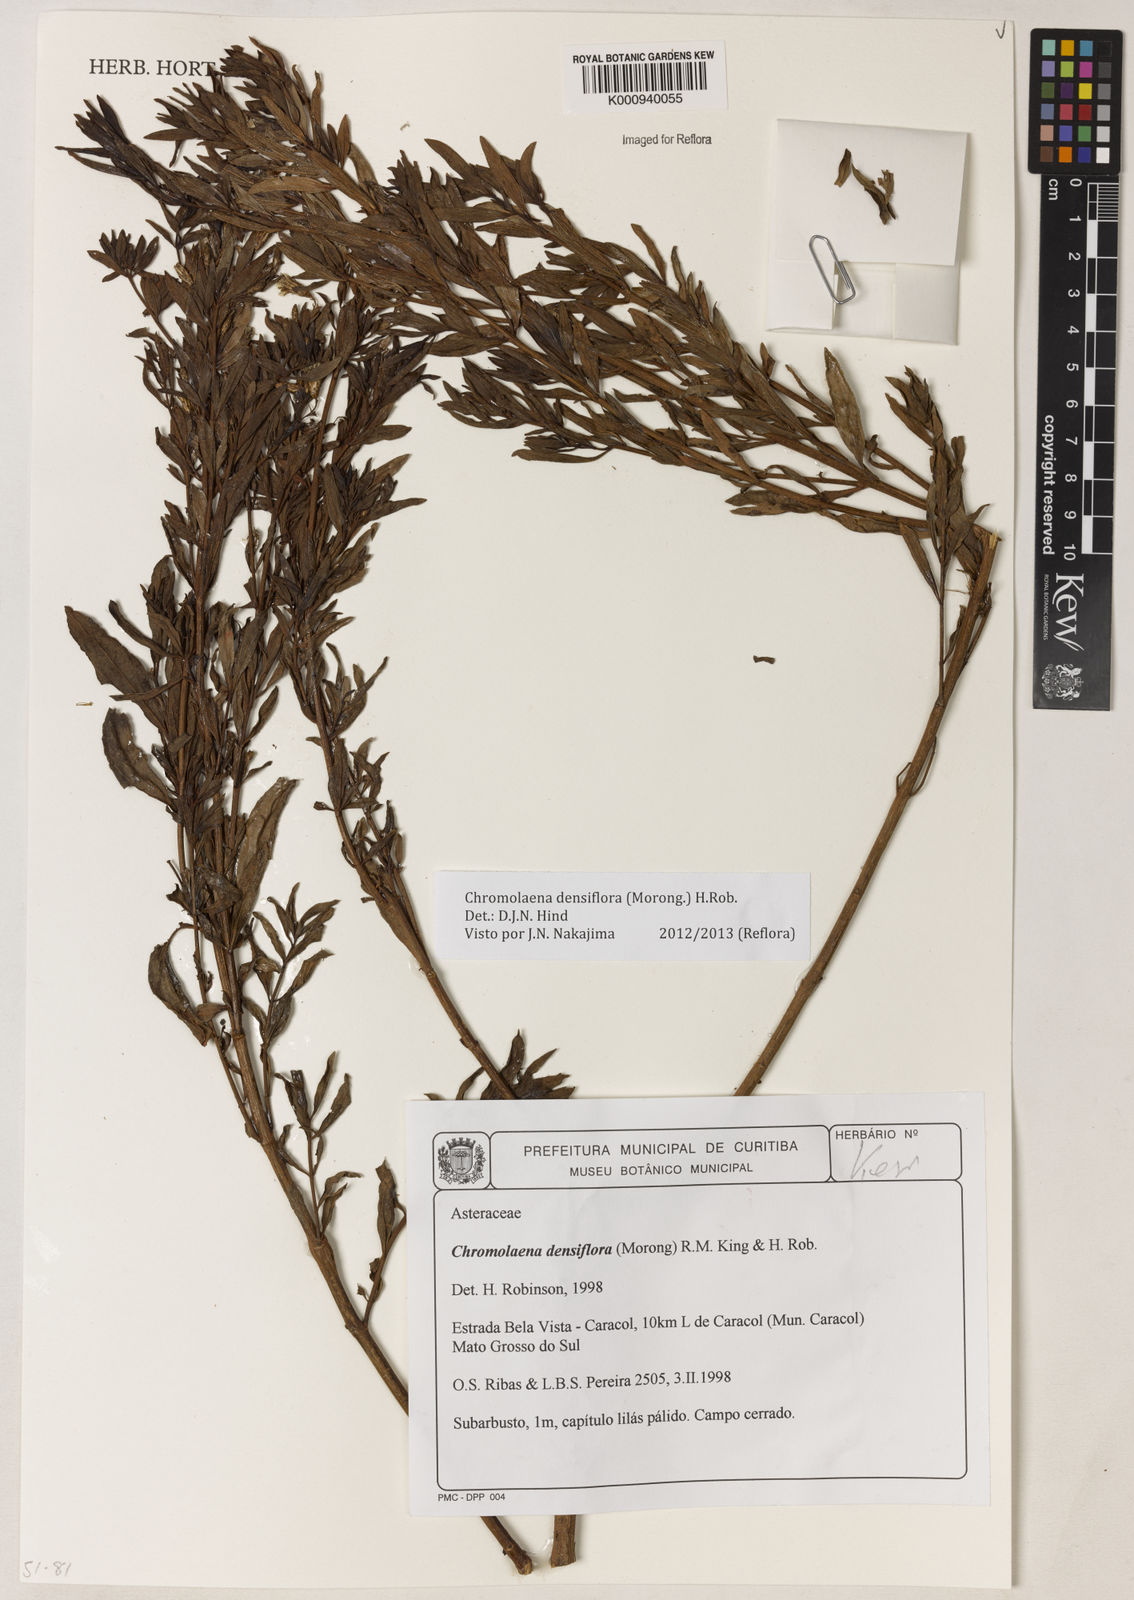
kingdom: Plantae
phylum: Tracheophyta
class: Magnoliopsida
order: Asterales
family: Asteraceae
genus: Chromolaena
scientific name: Chromolaena orbignyana
